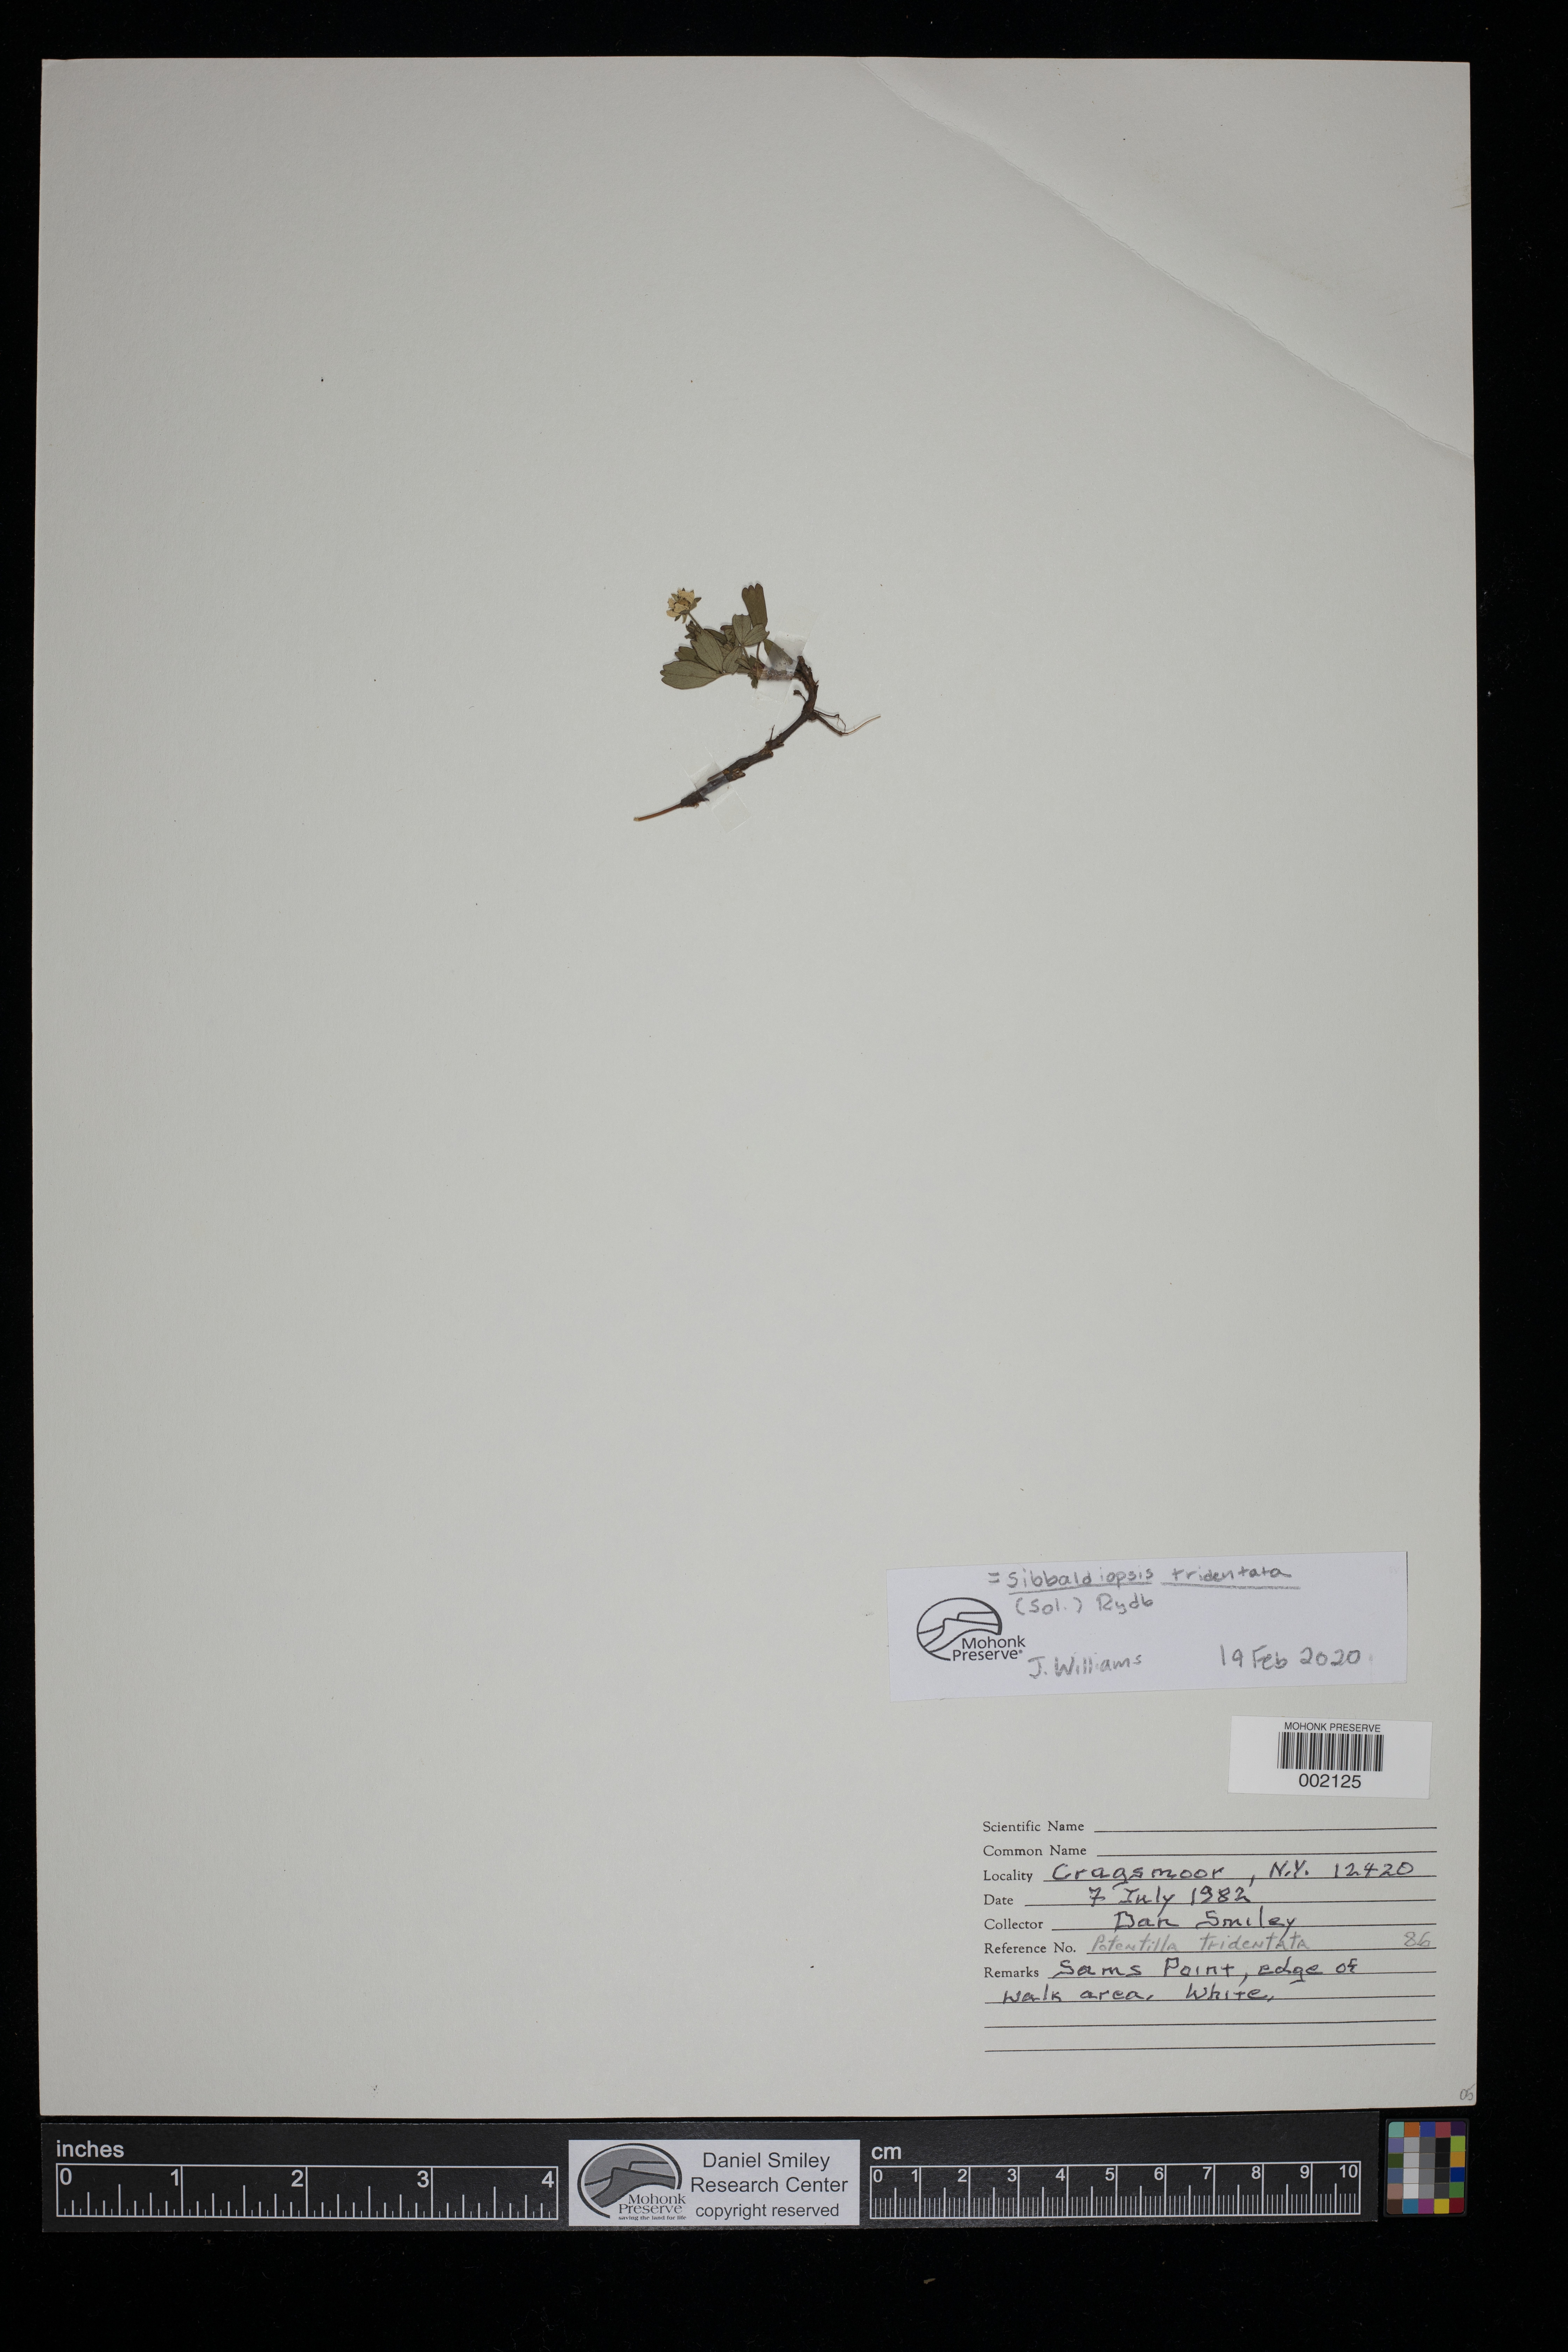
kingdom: Plantae
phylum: Tracheophyta
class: Magnoliopsida
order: Rosales
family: Rosaceae
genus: Sibbaldia
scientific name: Sibbaldia tridentata
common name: Three-toothed cinquefoil
